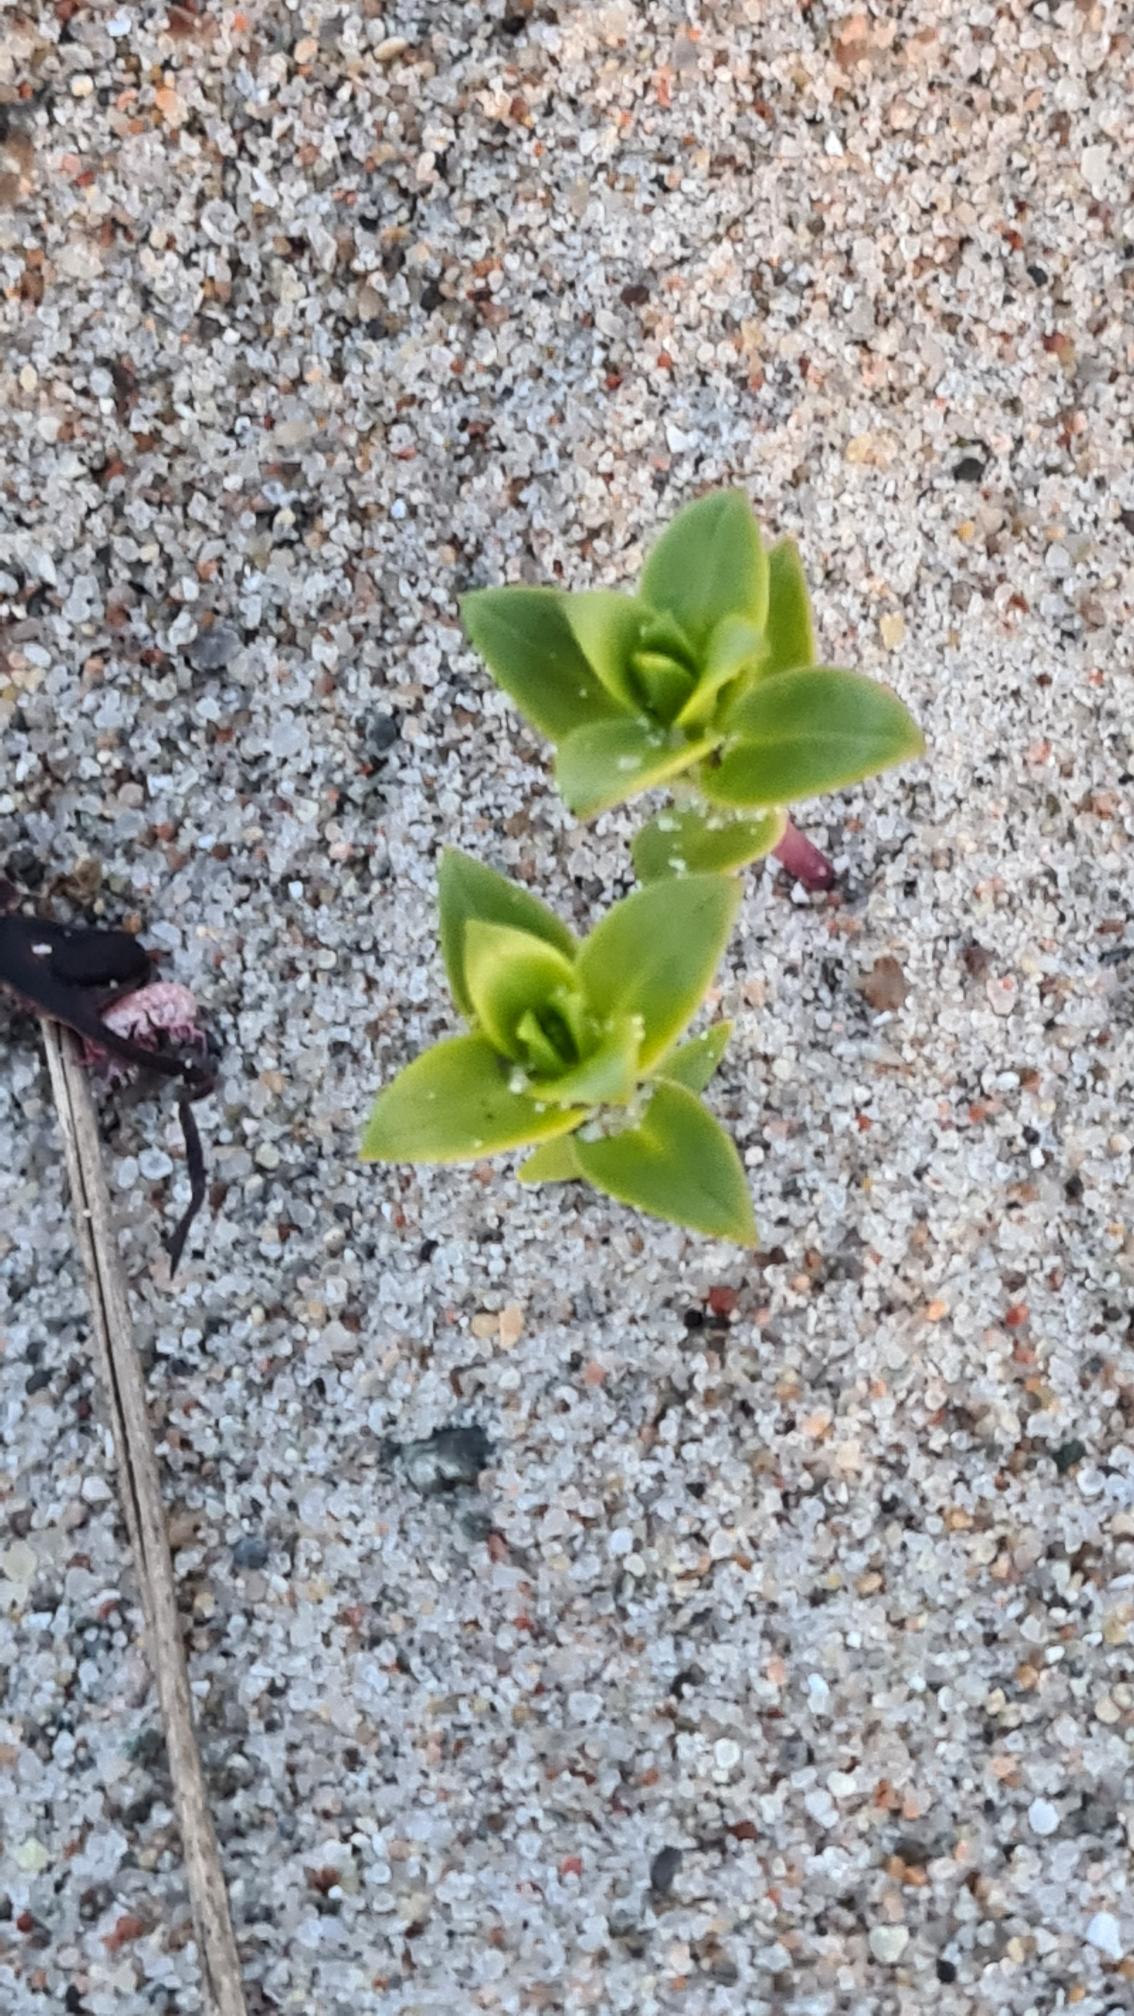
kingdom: Plantae
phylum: Tracheophyta
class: Magnoliopsida
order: Caryophyllales
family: Caryophyllaceae
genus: Honckenya
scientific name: Honckenya peploides
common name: Strandarve
